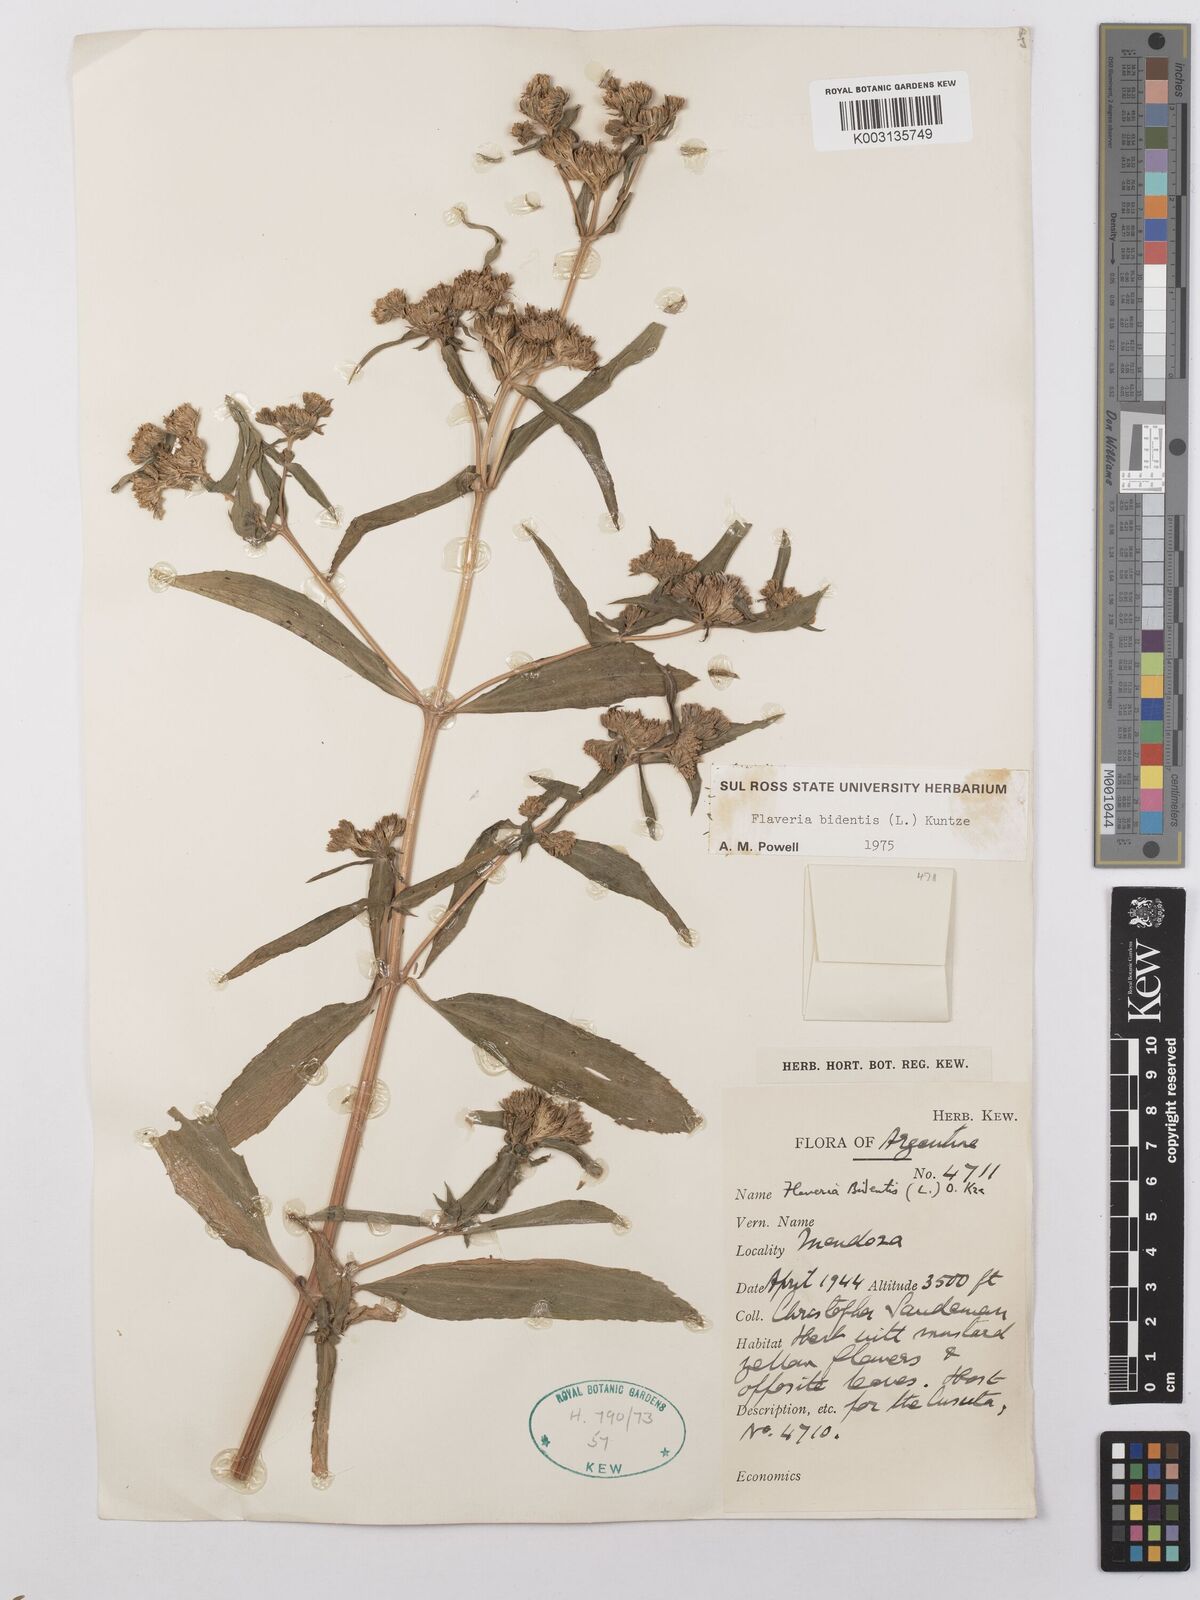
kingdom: Plantae
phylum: Tracheophyta
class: Magnoliopsida
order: Asterales
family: Asteraceae
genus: Flaveria
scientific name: Flaveria bidentis
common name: Coastal plain yellowtops
